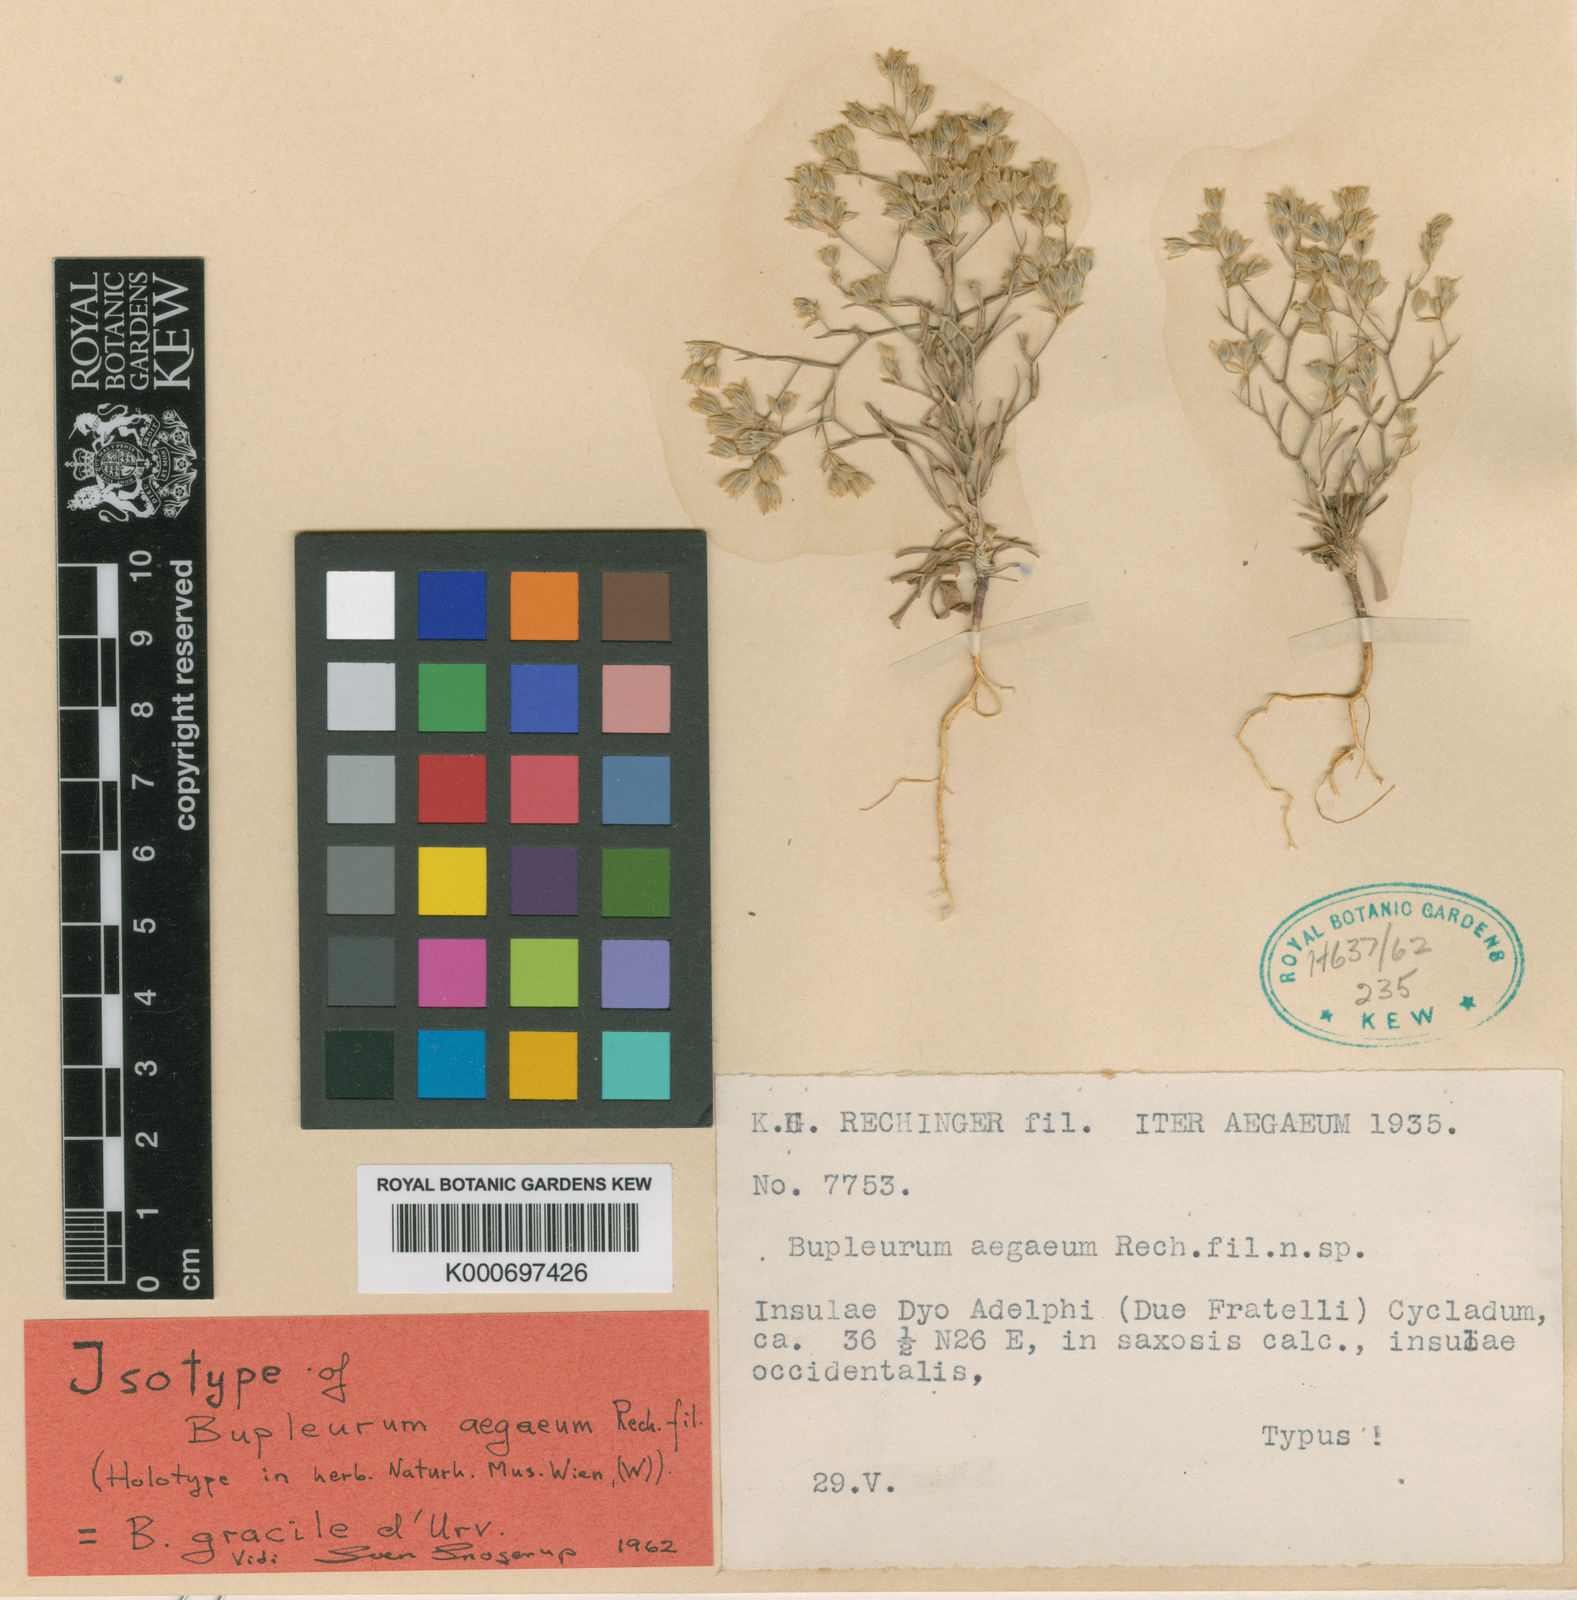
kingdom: Plantae
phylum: Tracheophyta
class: Magnoliopsida
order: Apiales
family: Apiaceae
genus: Bupleurum
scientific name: Bupleurum gracile
